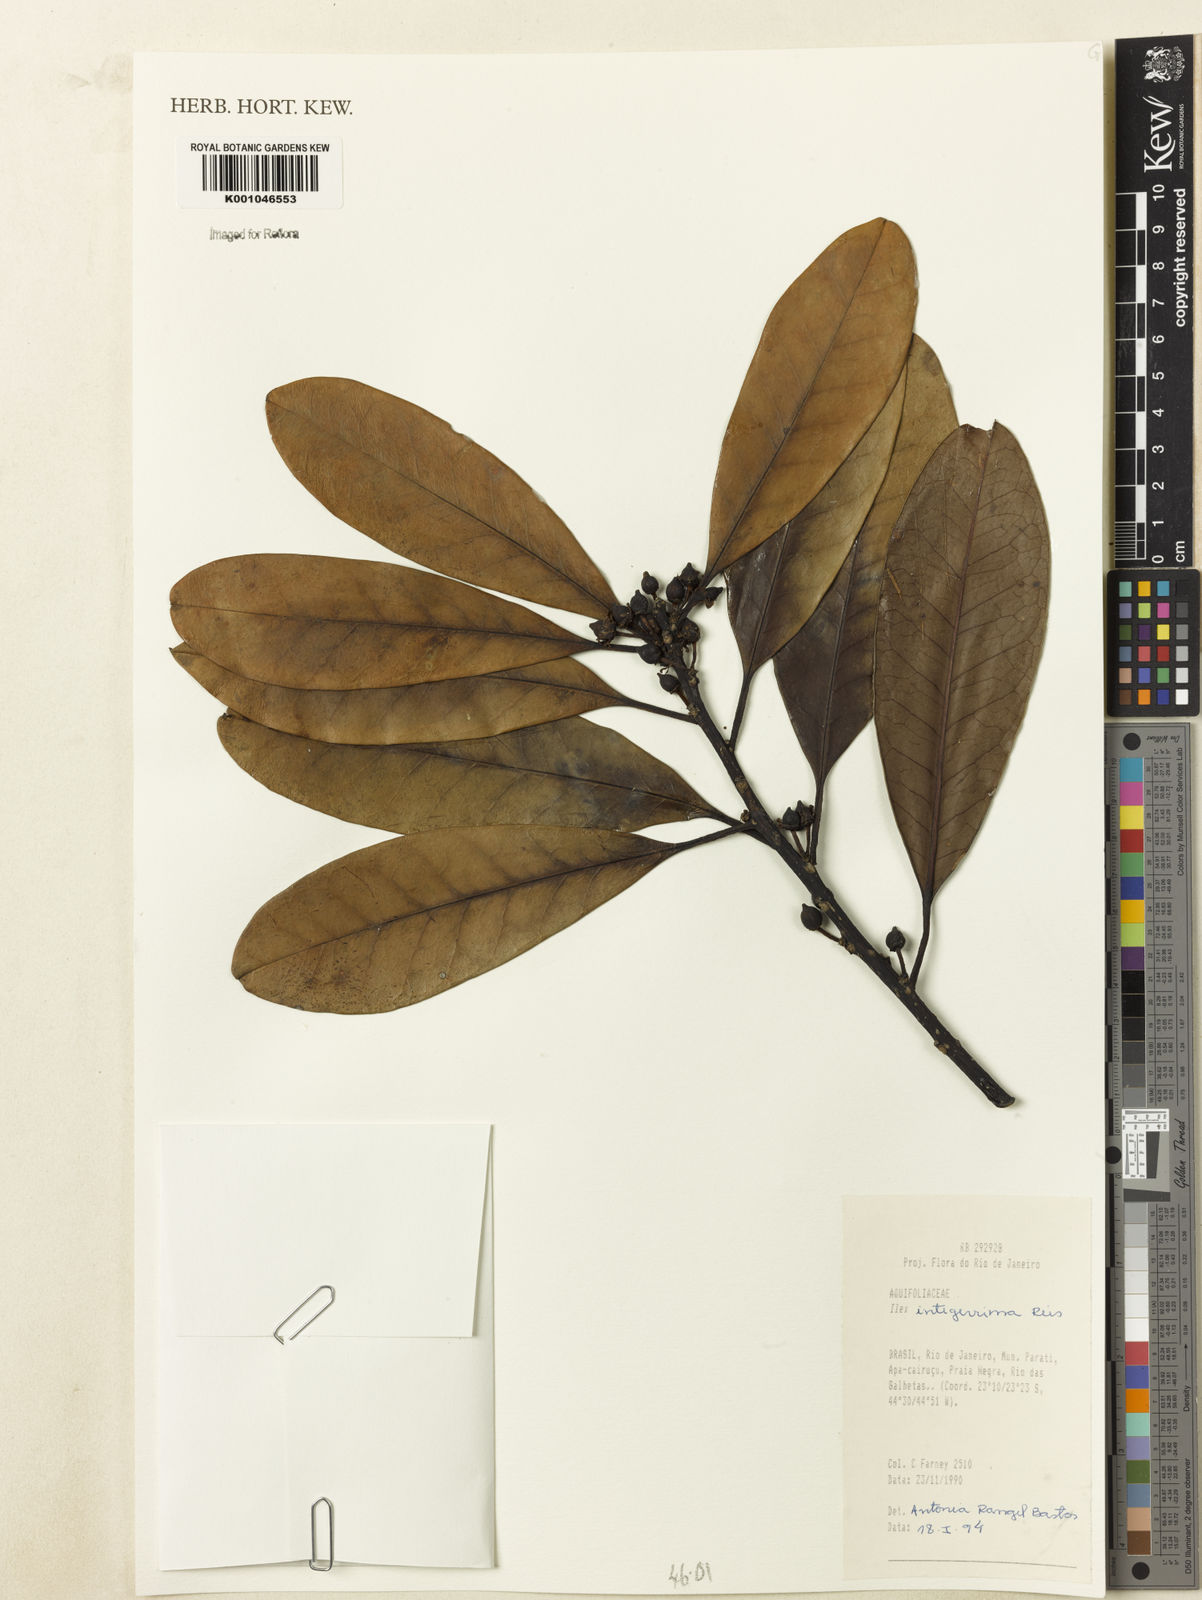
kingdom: Plantae
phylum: Tracheophyta
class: Magnoliopsida
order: Aquifoliales
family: Aquifoliaceae
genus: Ilex
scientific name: Ilex integerrima
